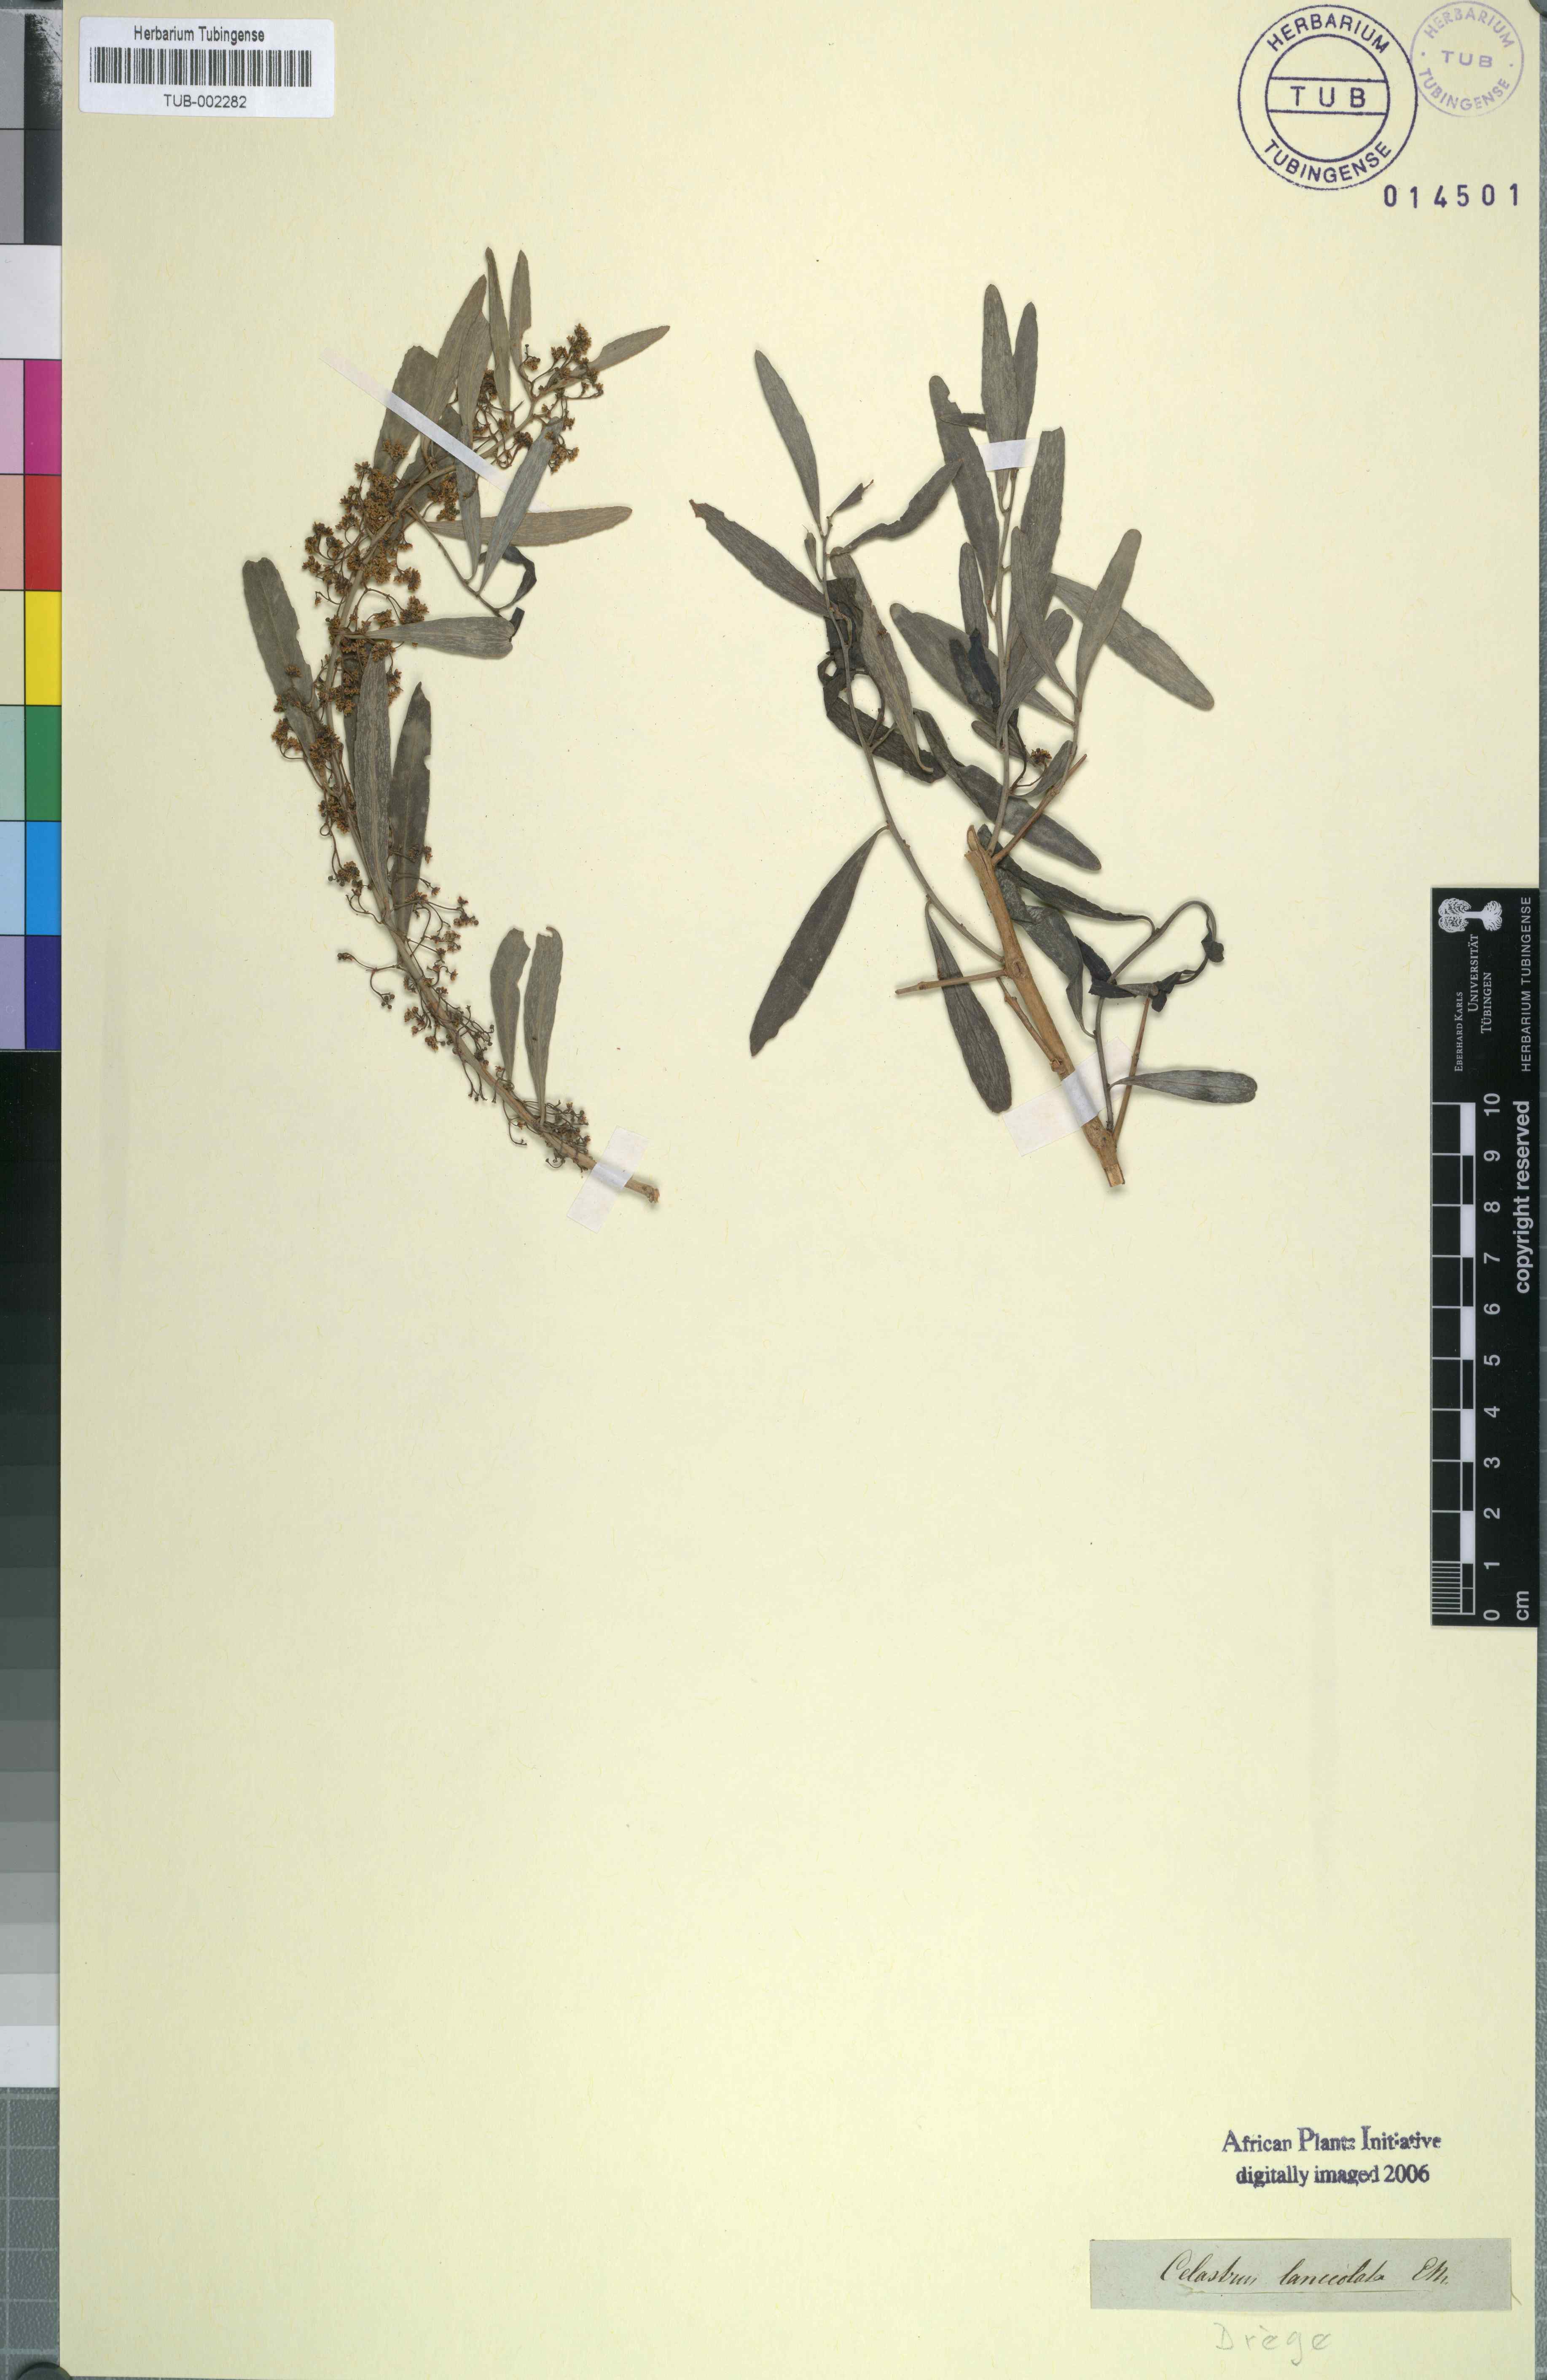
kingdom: Plantae
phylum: Tracheophyta
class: Magnoliopsida
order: Celastrales
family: Celastraceae
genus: Gymnosporia
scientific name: Gymnosporia linearis
